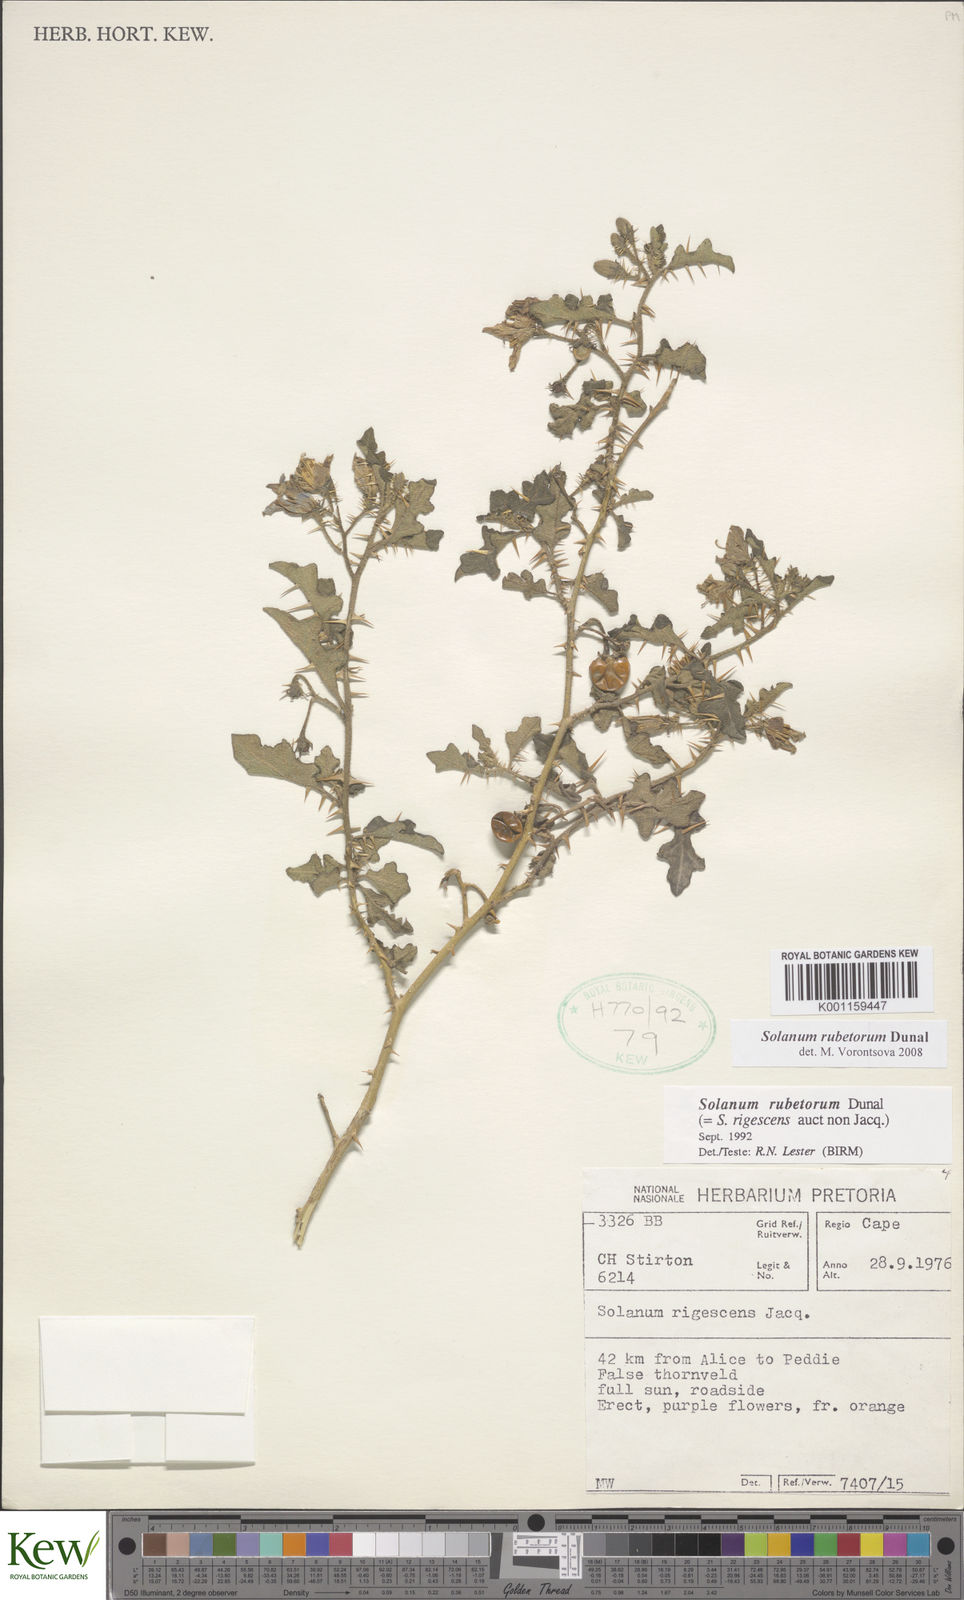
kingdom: Plantae
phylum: Tracheophyta
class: Magnoliopsida
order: Solanales
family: Solanaceae
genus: Solanum
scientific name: Solanum rubetorum
